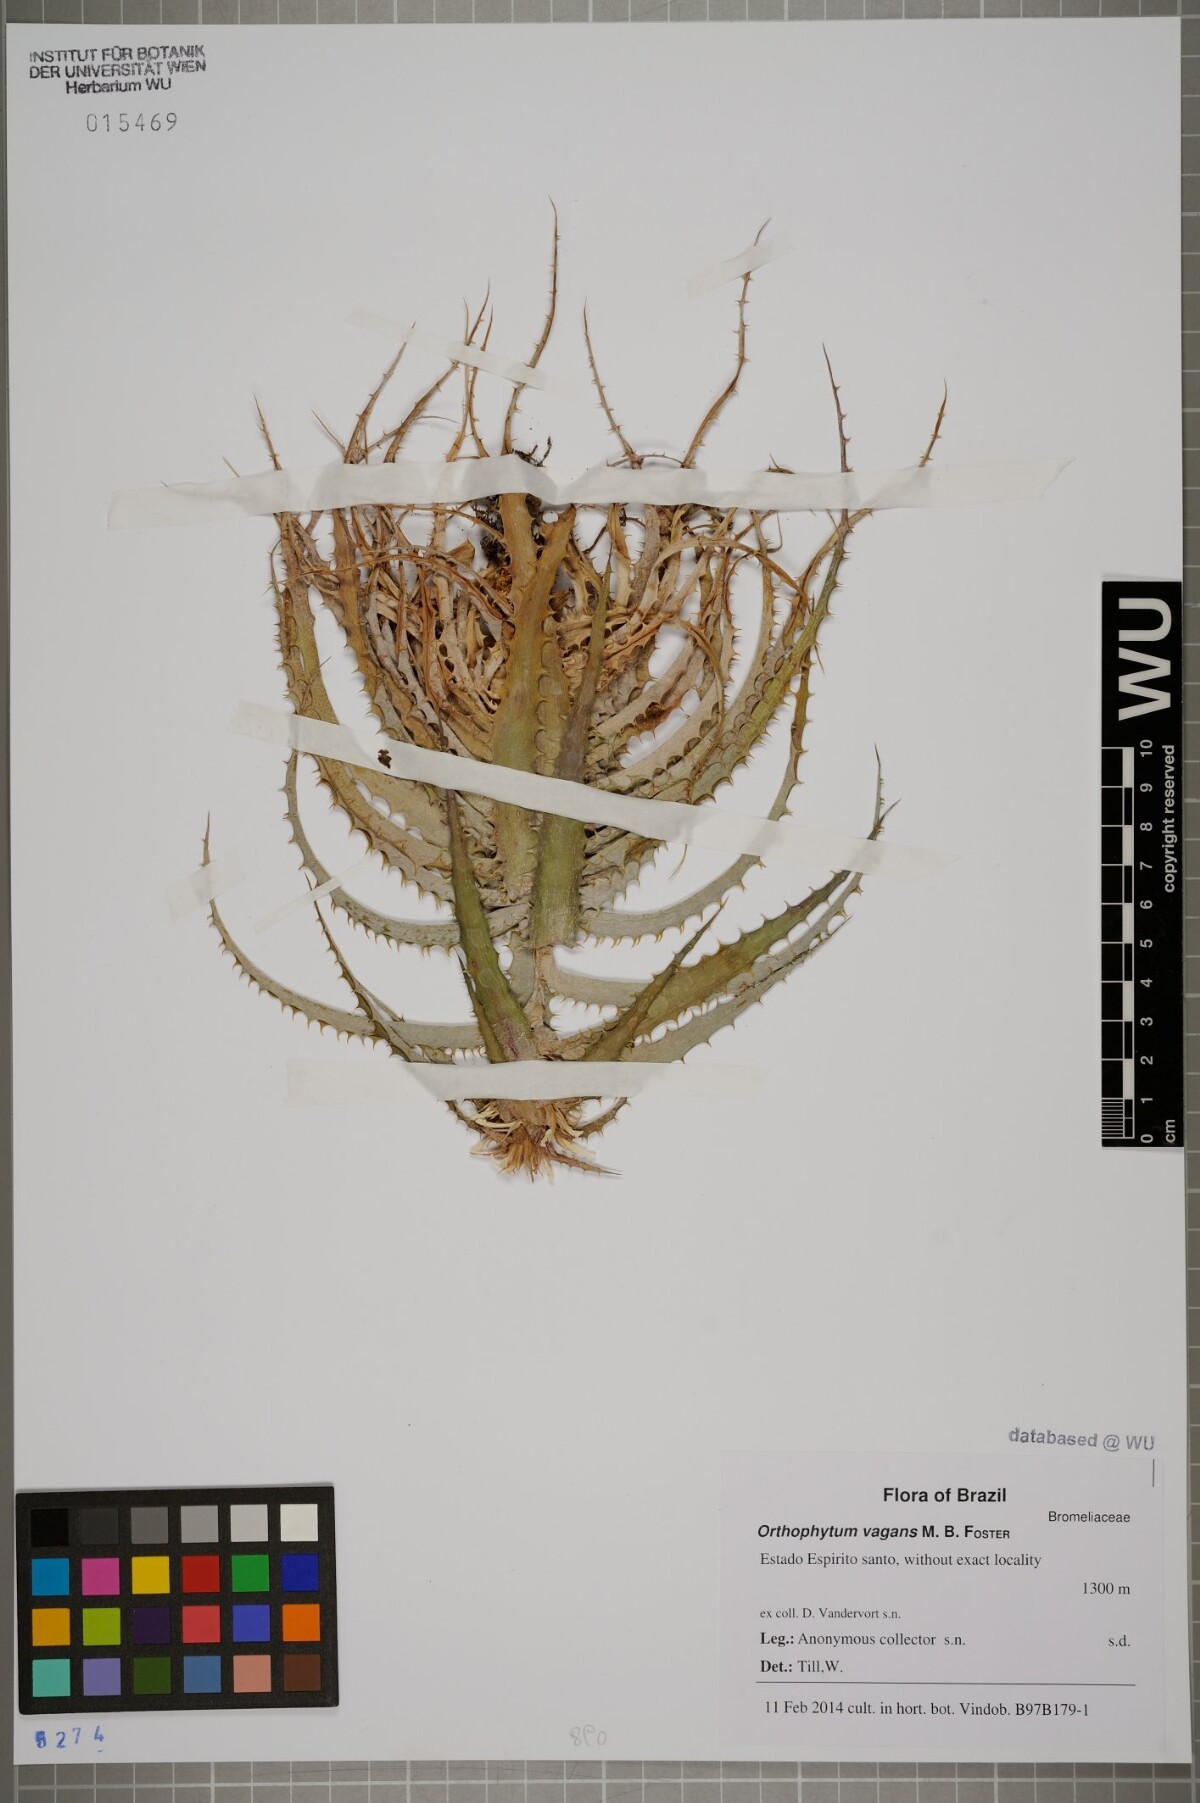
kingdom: Plantae
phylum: Tracheophyta
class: Liliopsida
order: Poales
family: Bromeliaceae
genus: Orthophytum
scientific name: Orthophytum vagans
